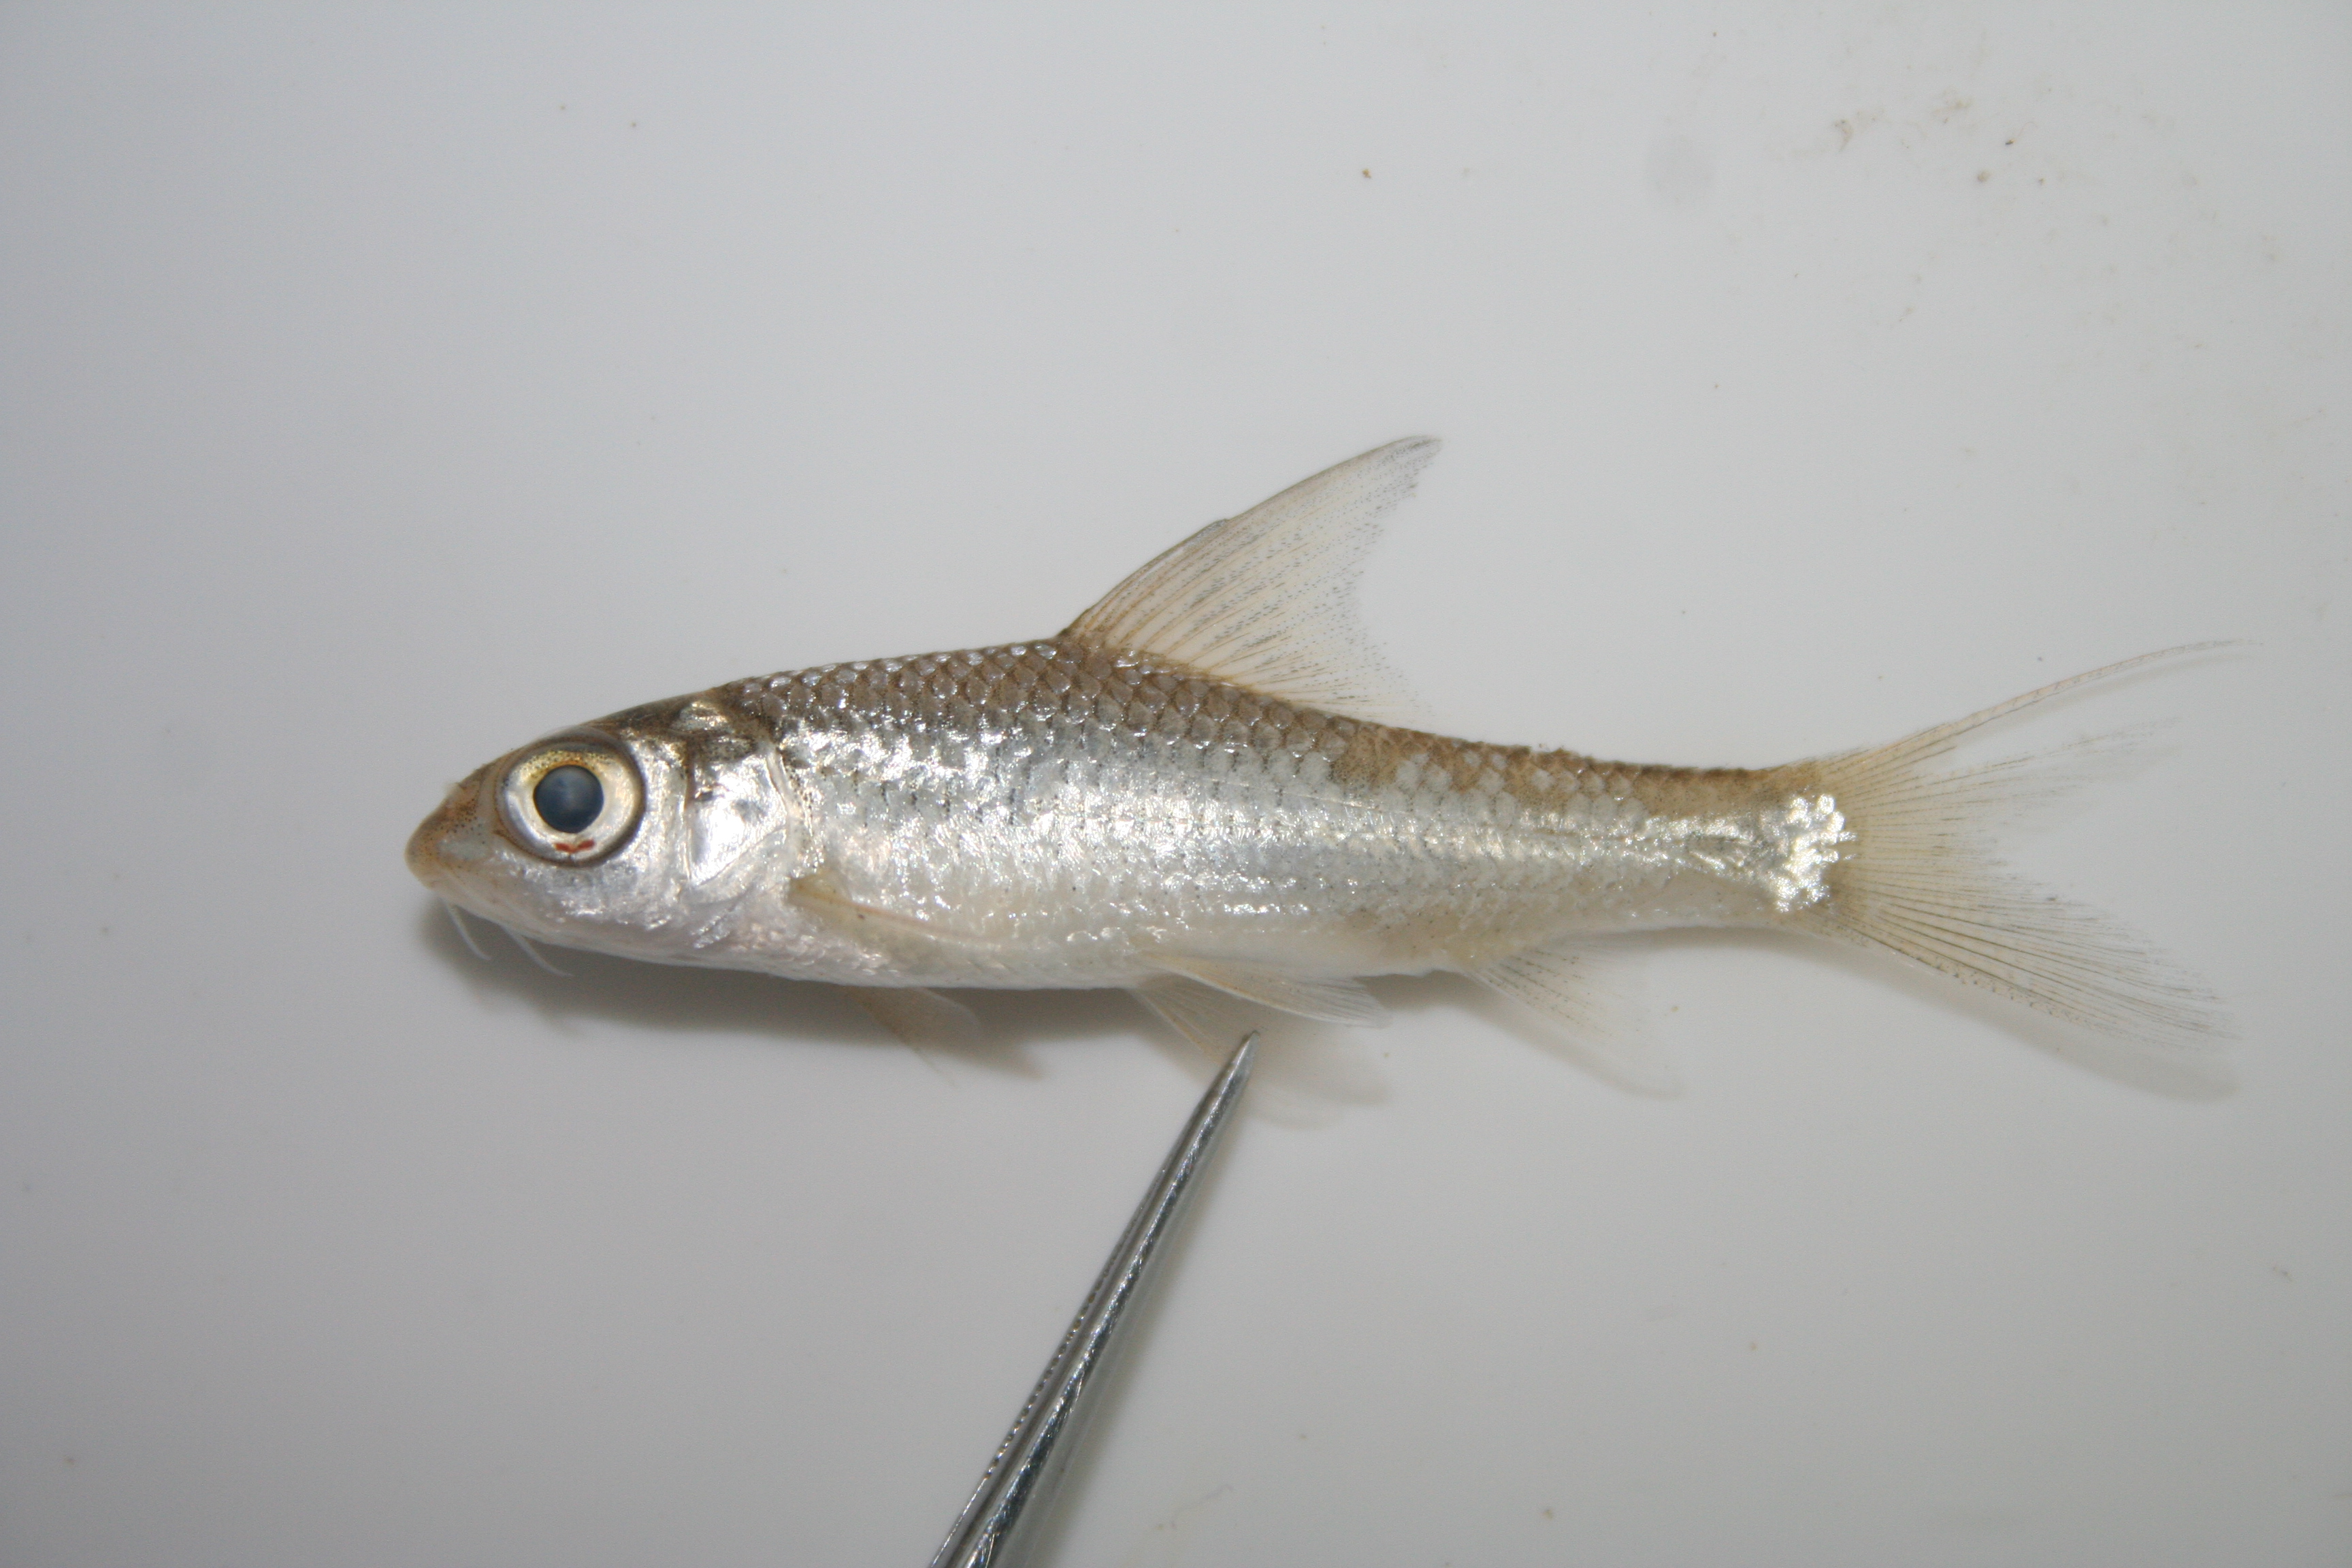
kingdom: Animalia
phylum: Chordata
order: Cypriniformes
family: Cyprinidae
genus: Enteromius
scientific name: Enteromius paludinosus
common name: Straightfin barb
